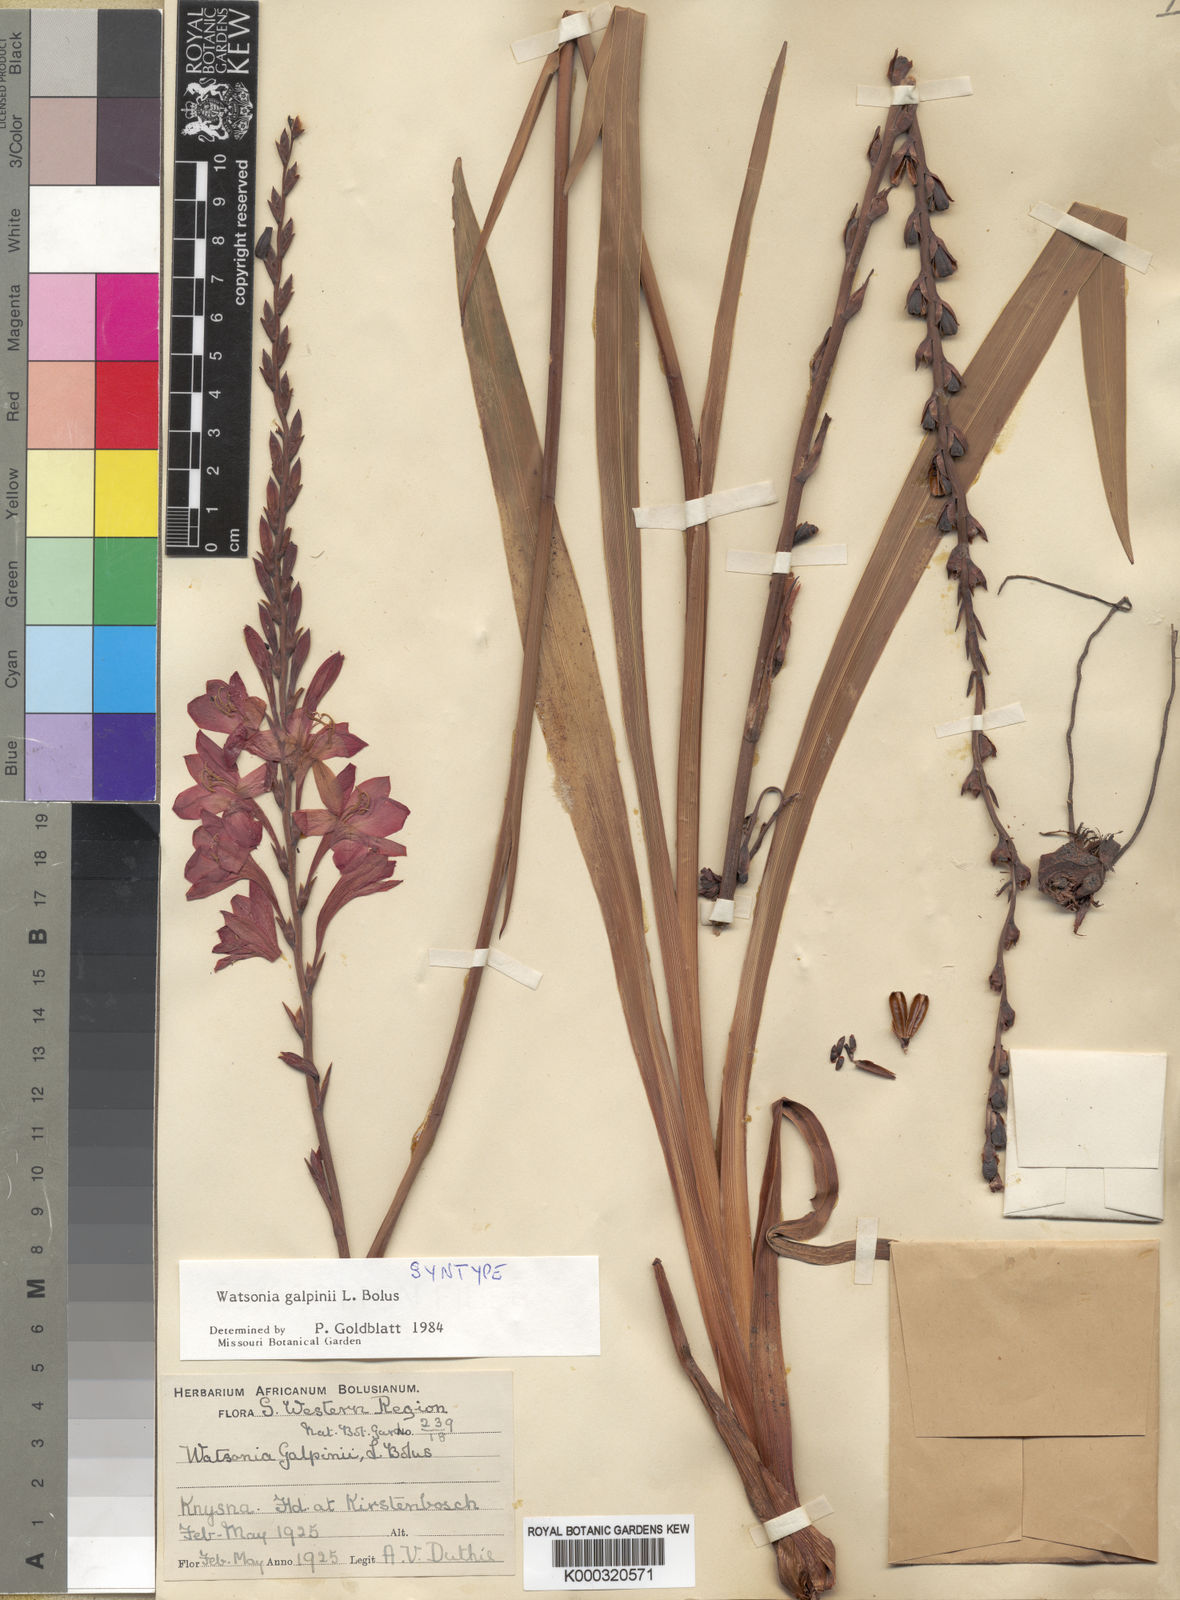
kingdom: Plantae
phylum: Tracheophyta
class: Liliopsida
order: Asparagales
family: Iridaceae
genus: Watsonia
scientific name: Watsonia galpinii
